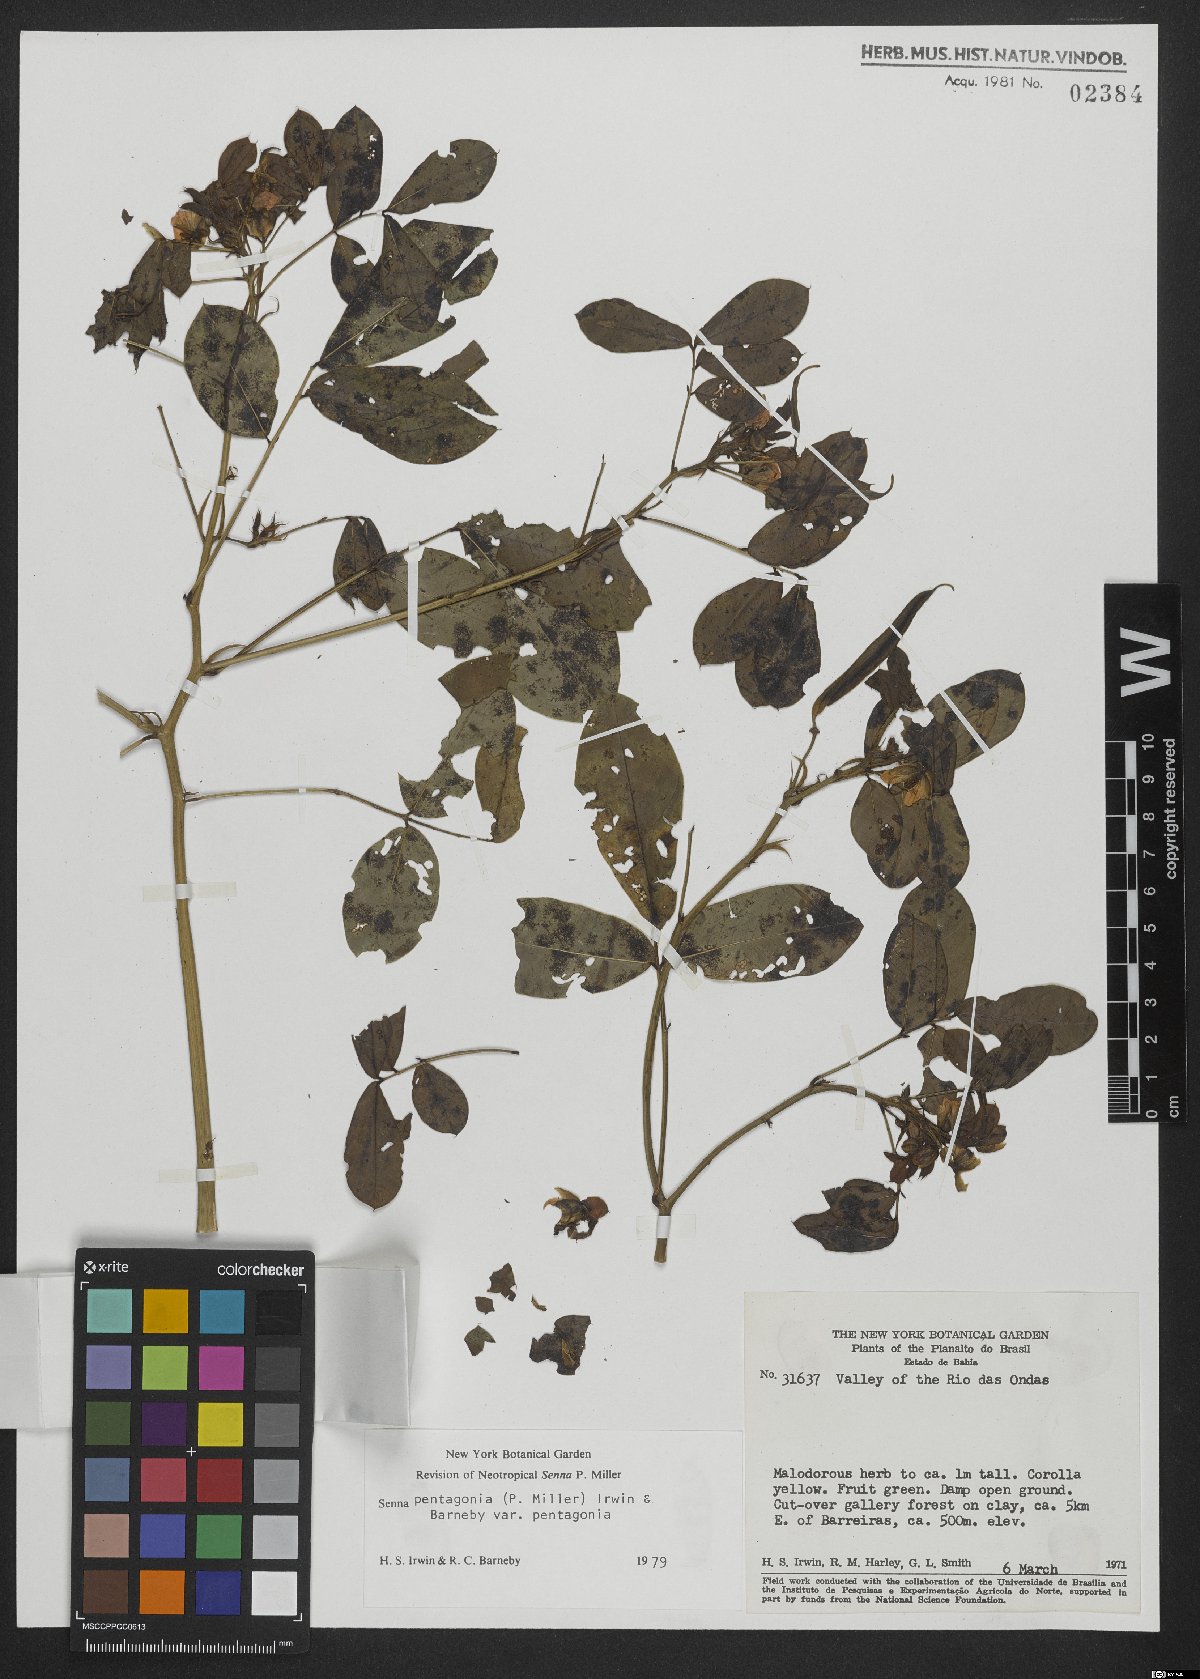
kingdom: Plantae
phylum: Tracheophyta
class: Magnoliopsida
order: Fabales
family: Fabaceae
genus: Senna
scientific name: Senna pentagonia
